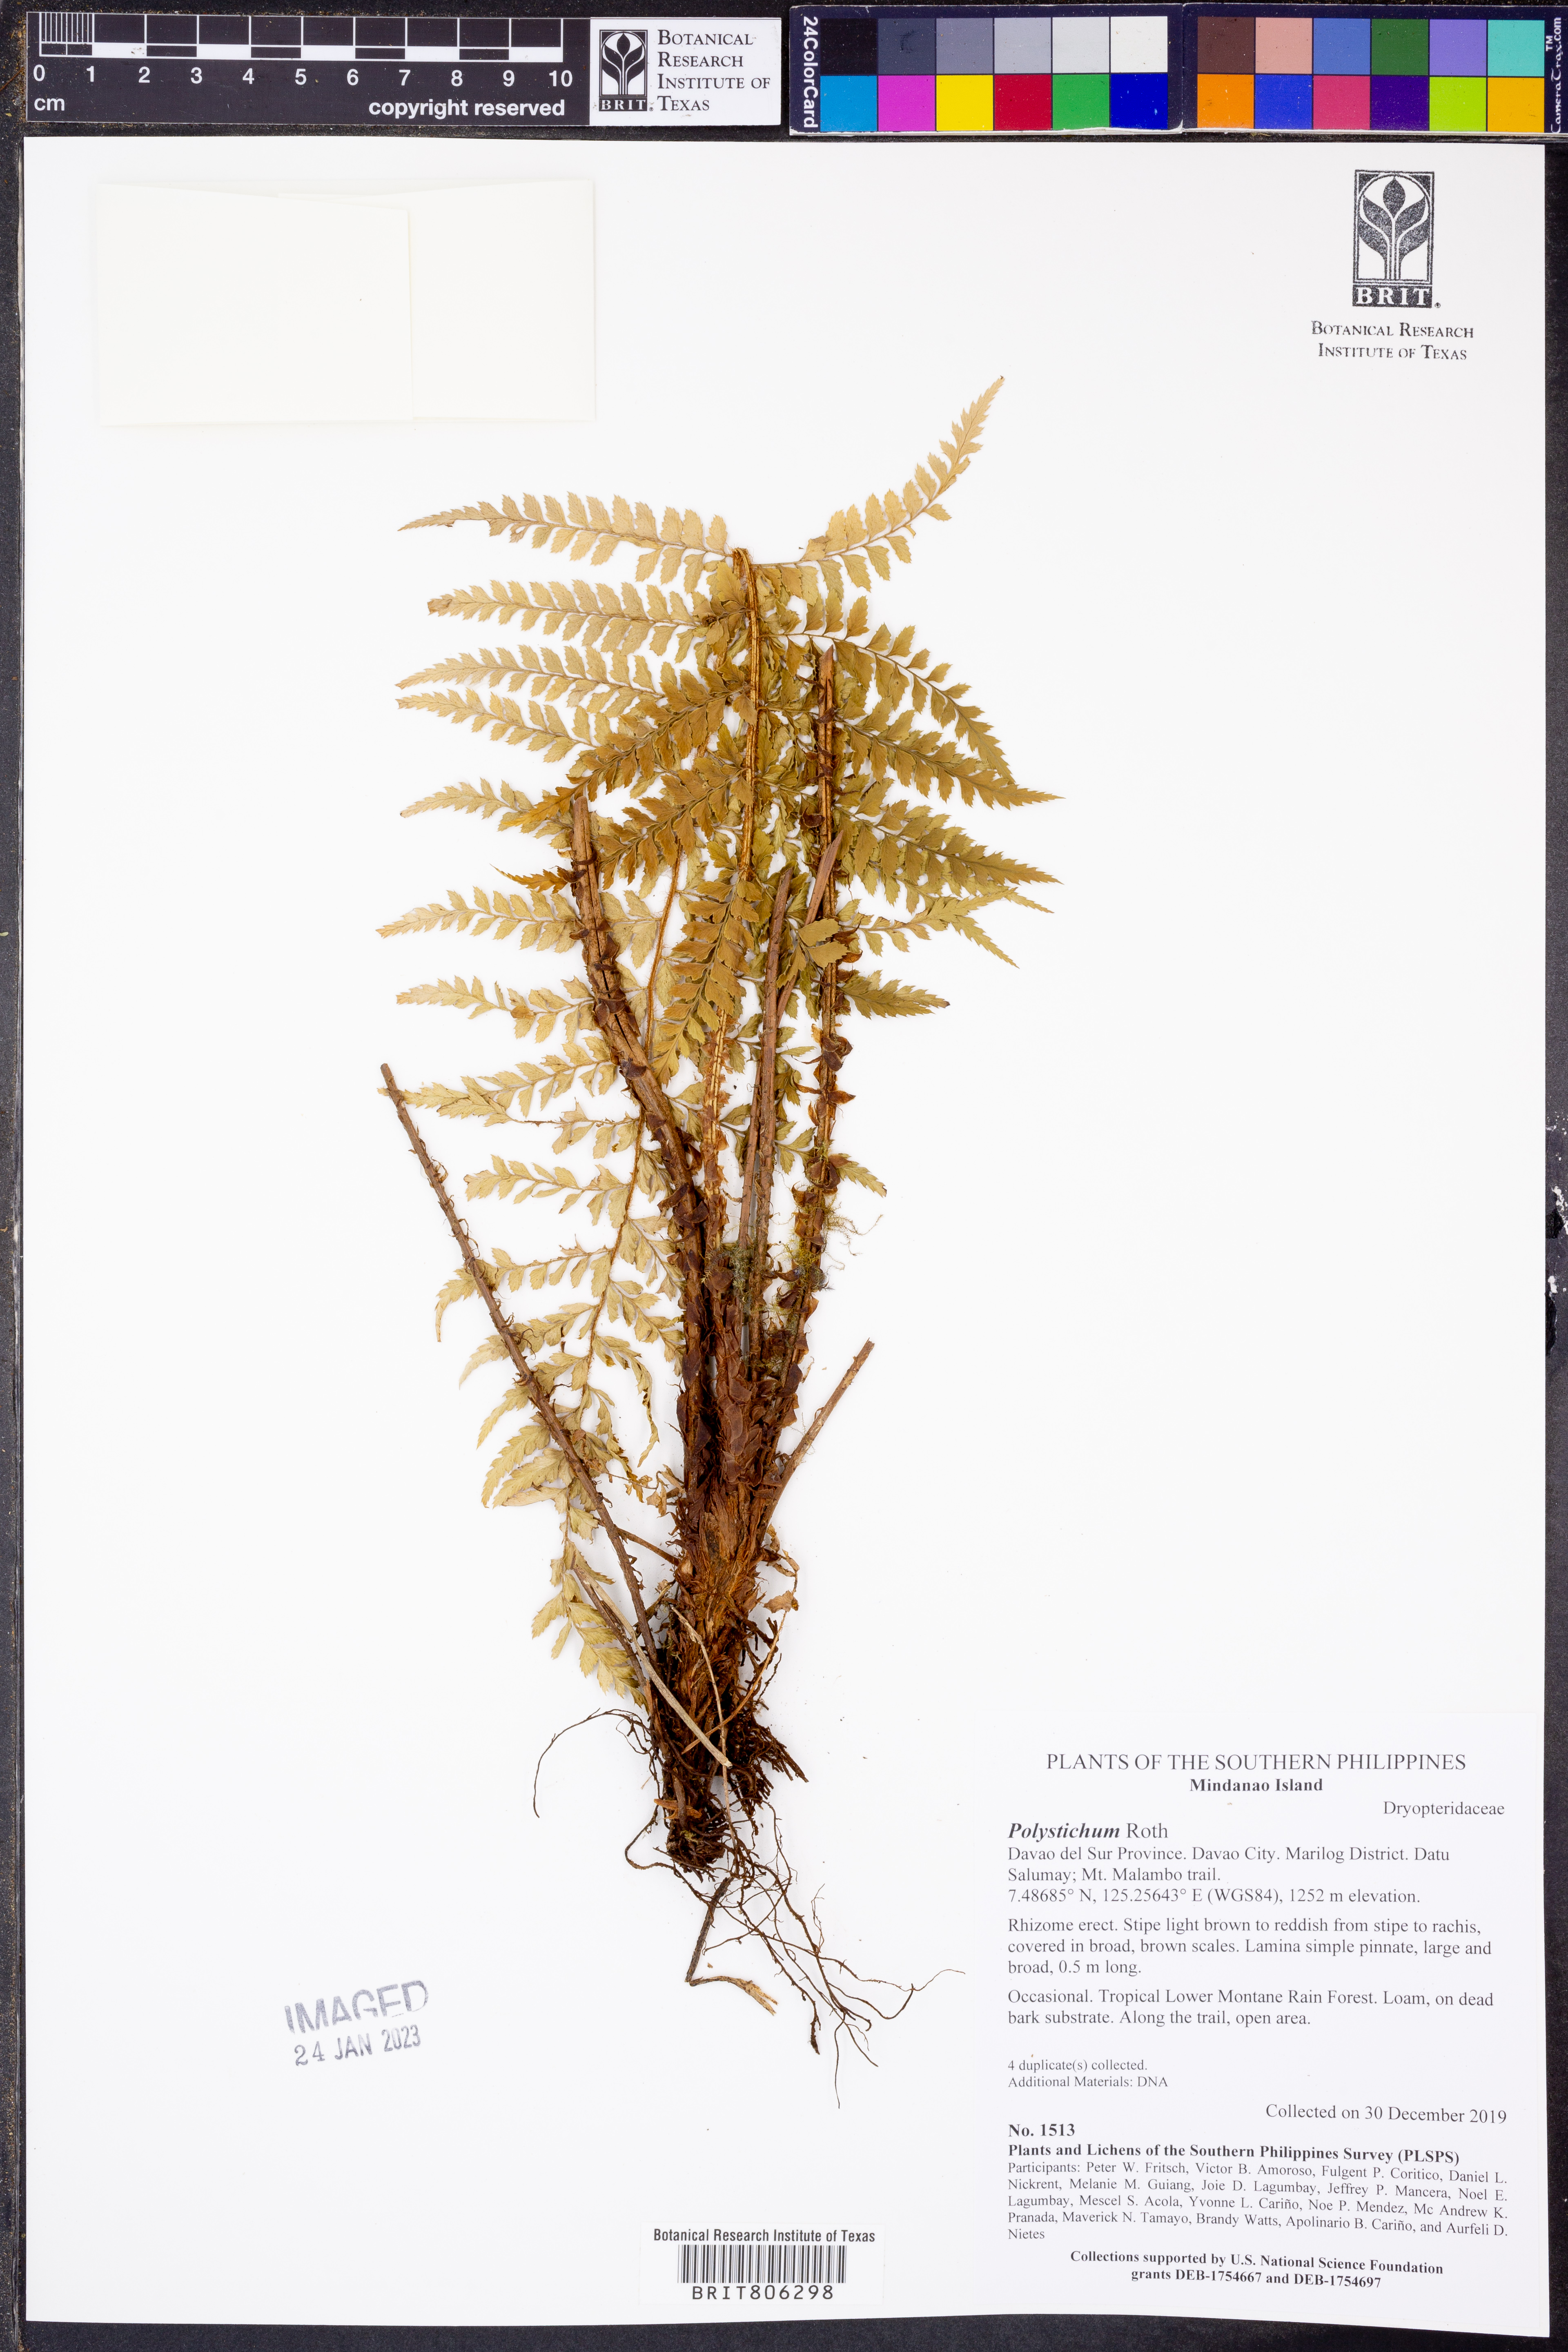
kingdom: Plantae
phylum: Tracheophyta
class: Polypodiopsida
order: Polypodiales
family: Dryopteridaceae
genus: Polystichum
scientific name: Polystichum
